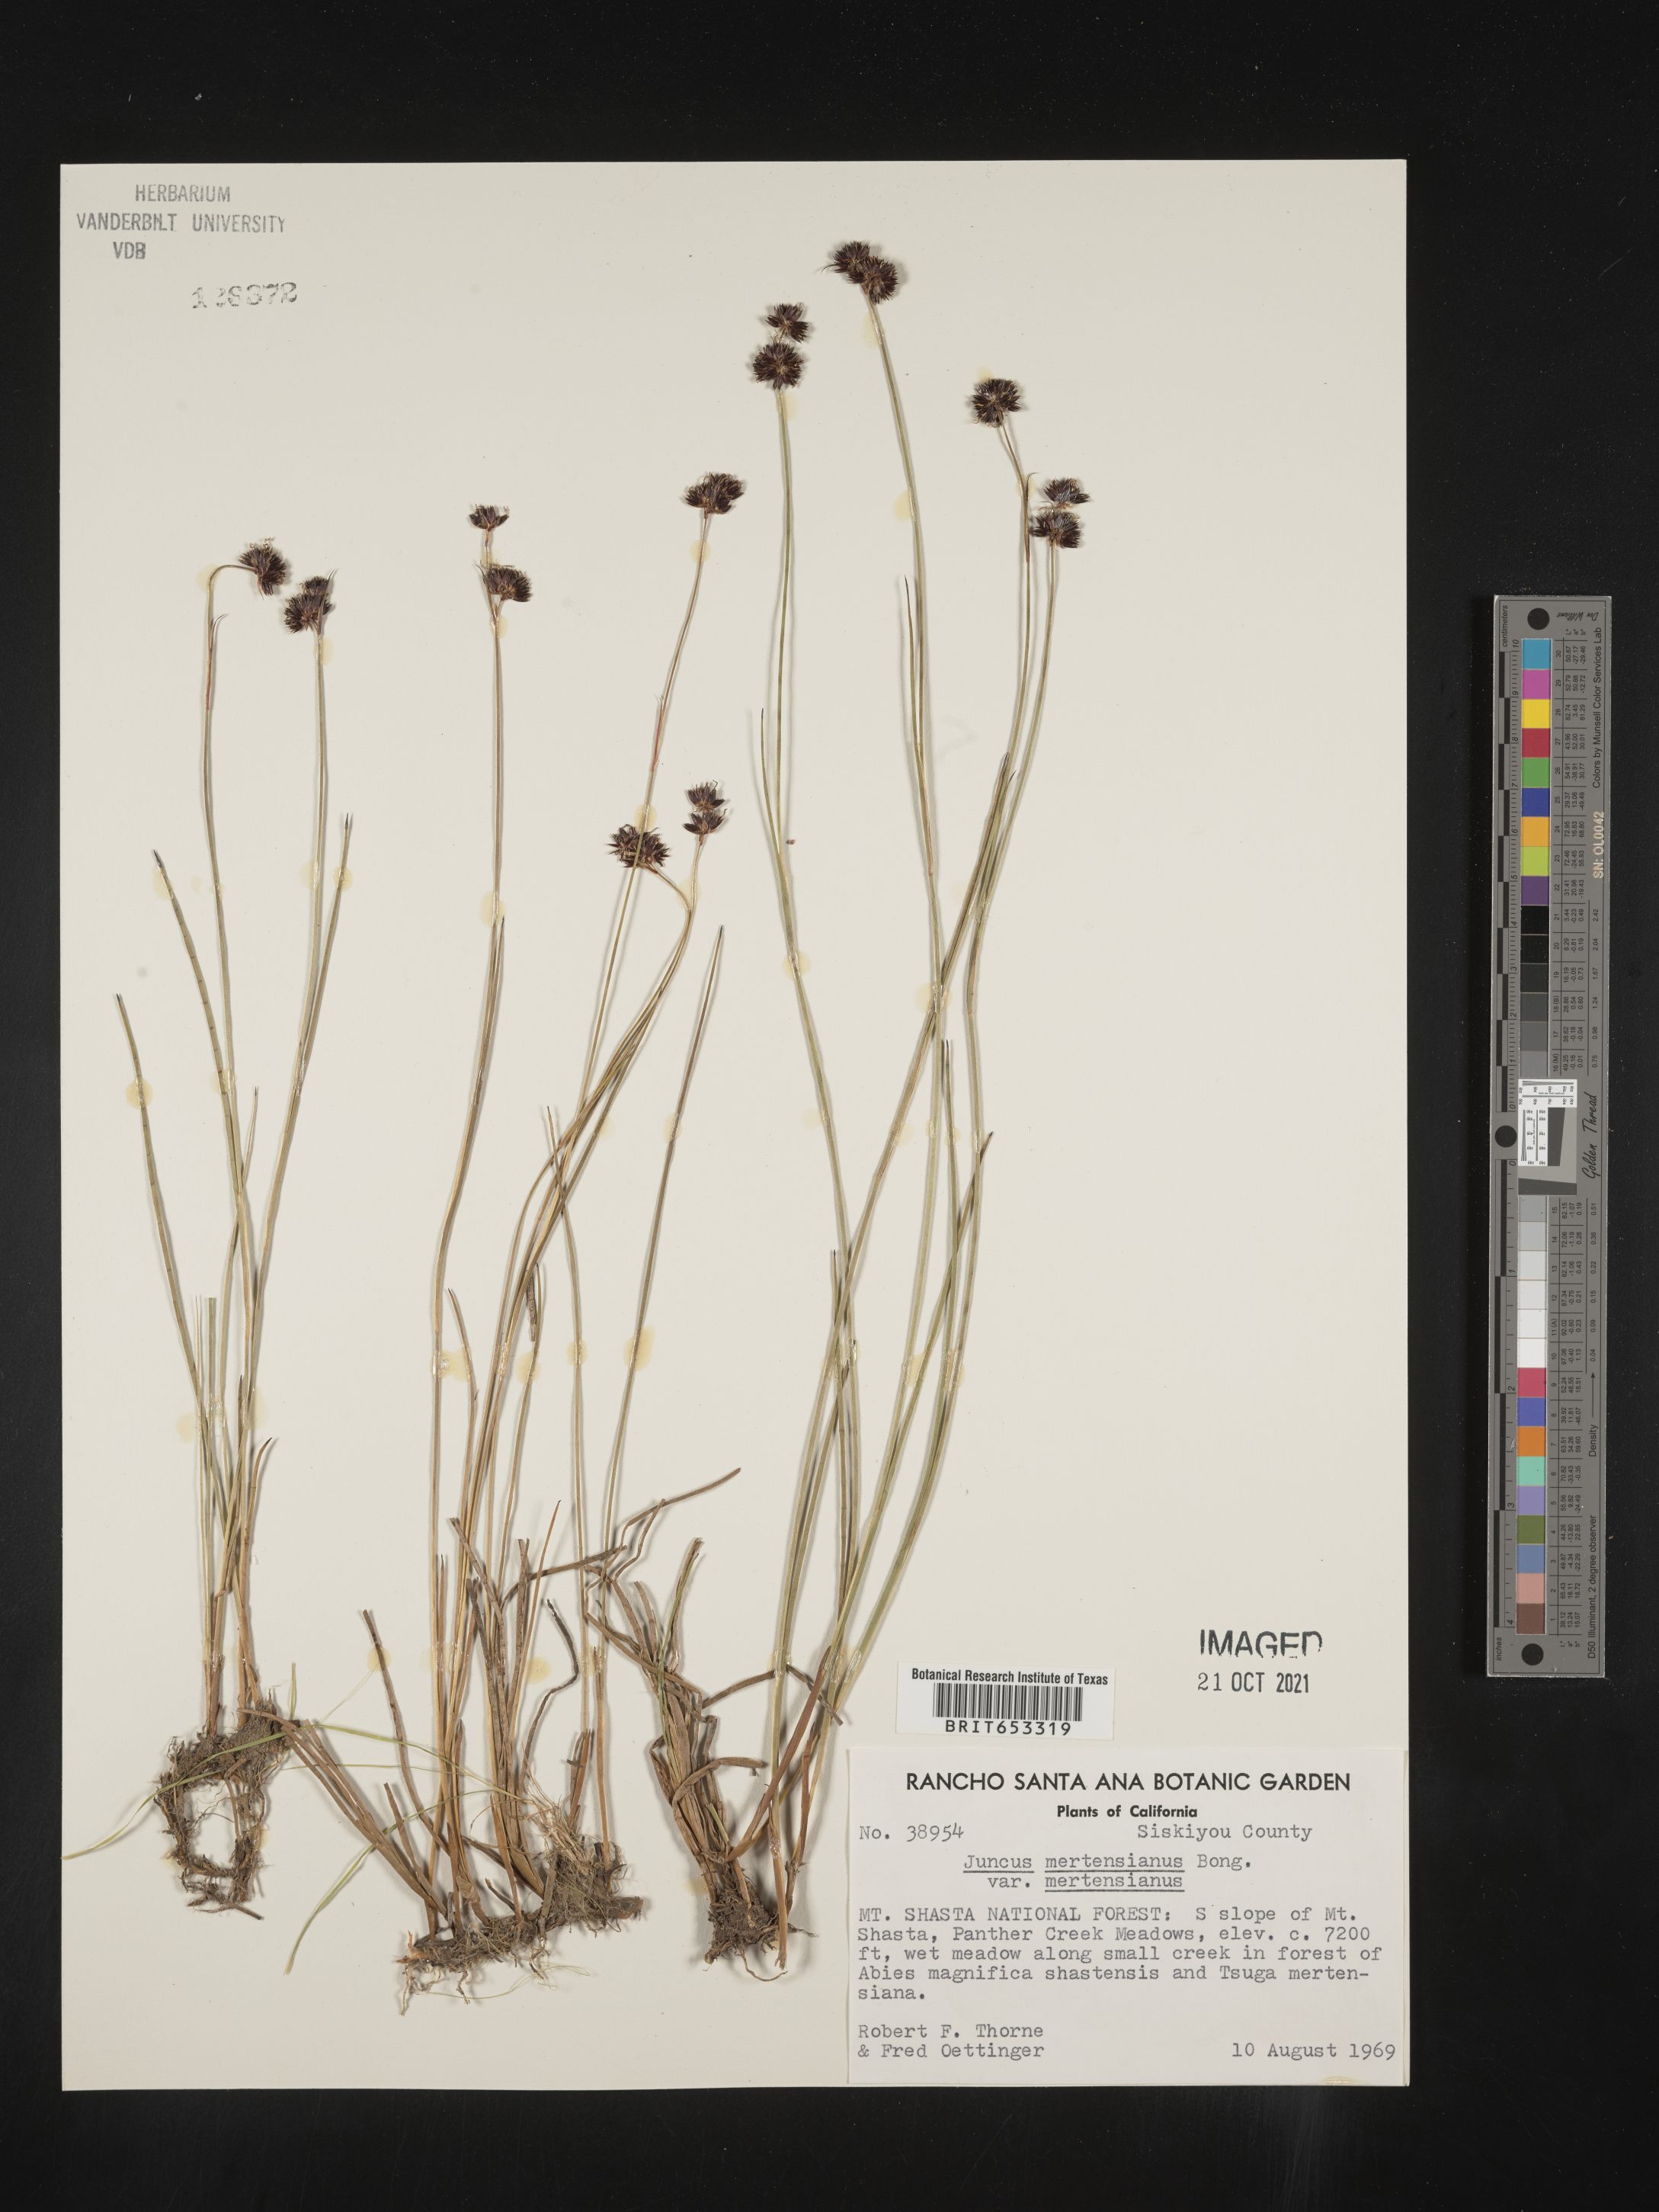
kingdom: Plantae
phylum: Tracheophyta
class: Liliopsida
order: Poales
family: Juncaceae
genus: Juncus
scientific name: Juncus mertensianus
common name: Merten's rush
